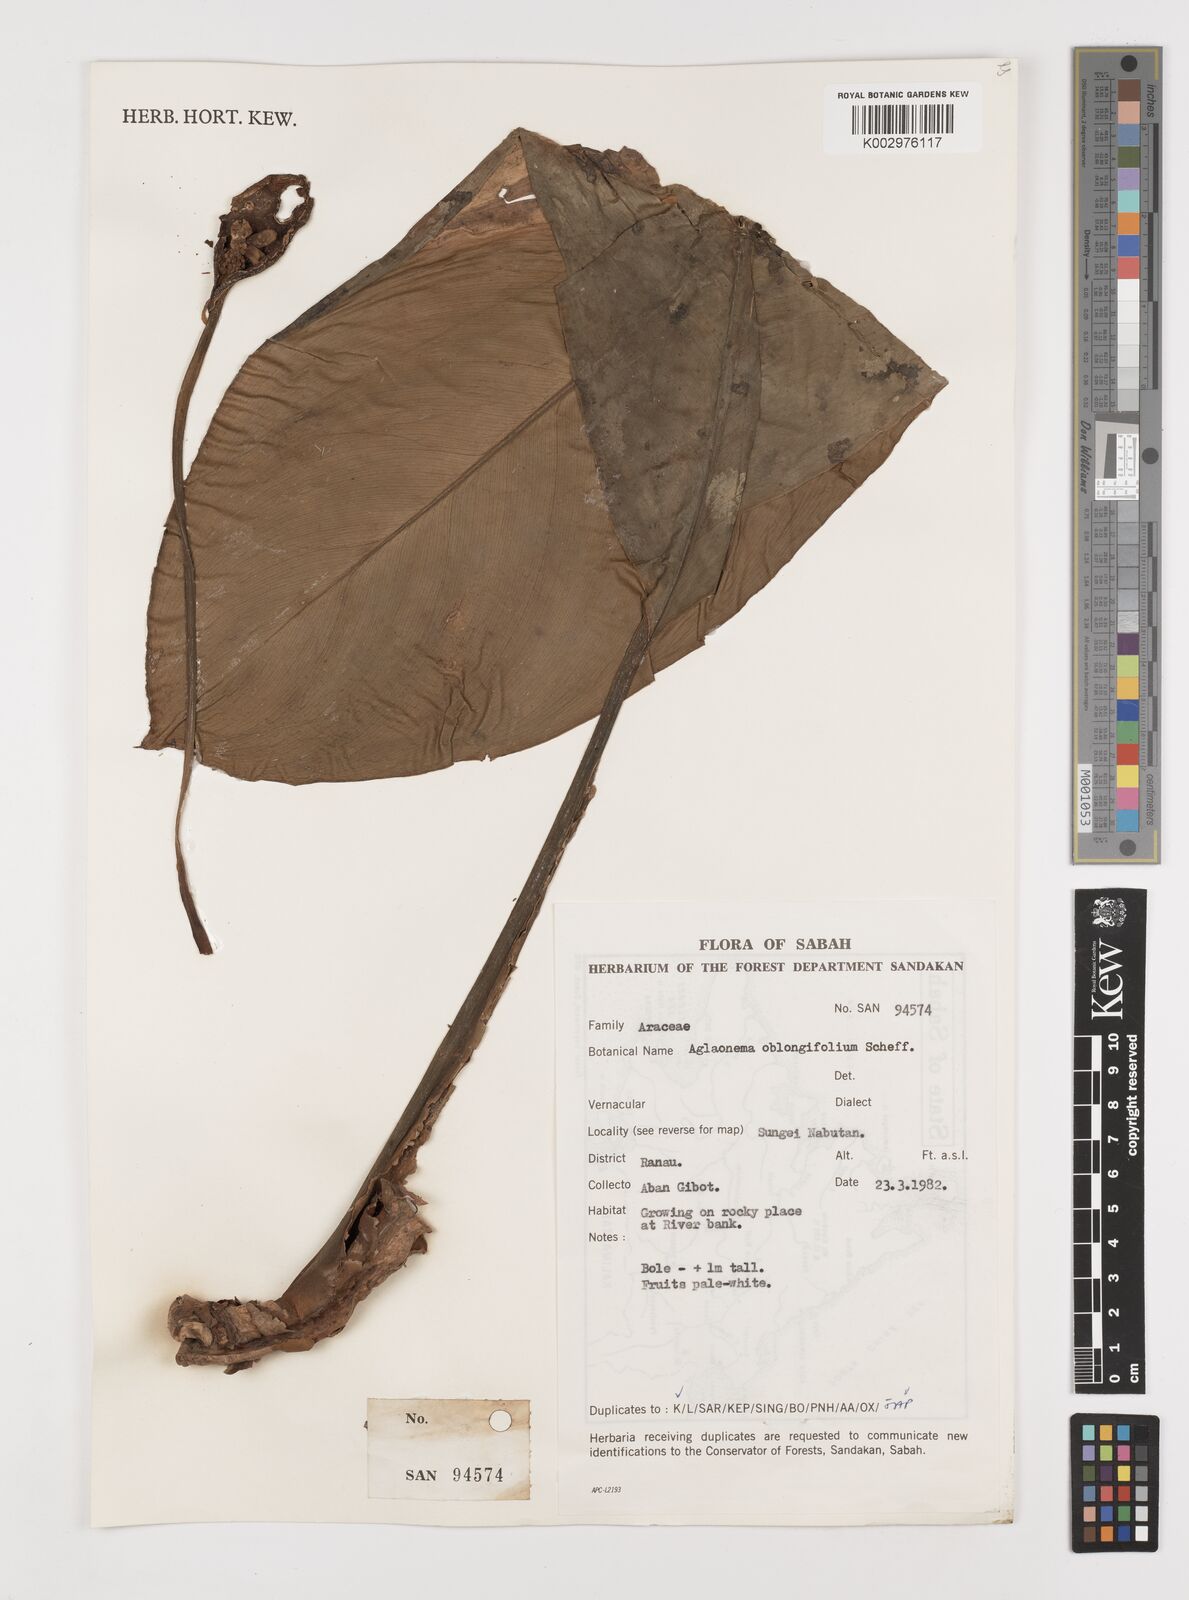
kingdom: Plantae
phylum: Tracheophyta
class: Liliopsida
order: Alismatales
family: Araceae
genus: Aglaonema
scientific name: Aglaonema nitidum
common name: Aglaonema aroid
